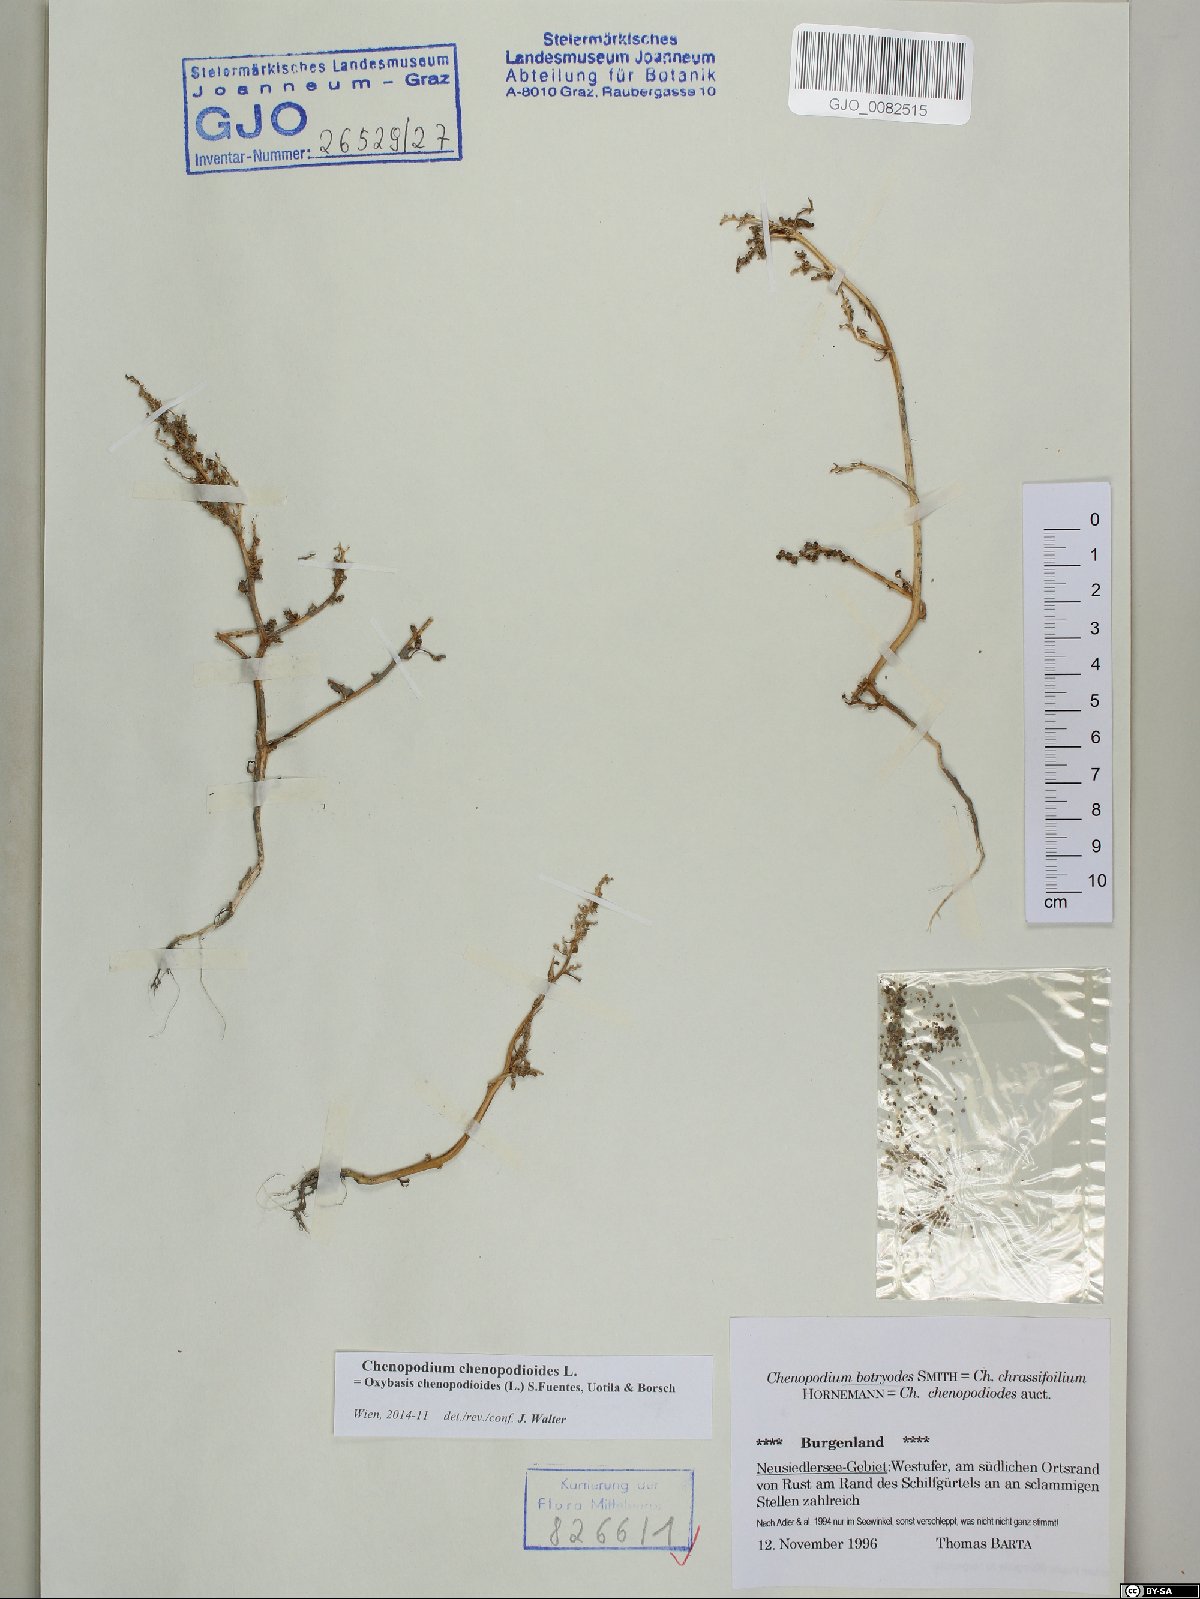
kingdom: Plantae
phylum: Tracheophyta
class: Magnoliopsida
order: Caryophyllales
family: Amaranthaceae
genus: Oxybasis
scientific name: Oxybasis chenopodioides
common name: Saltmarsh goosefoot
